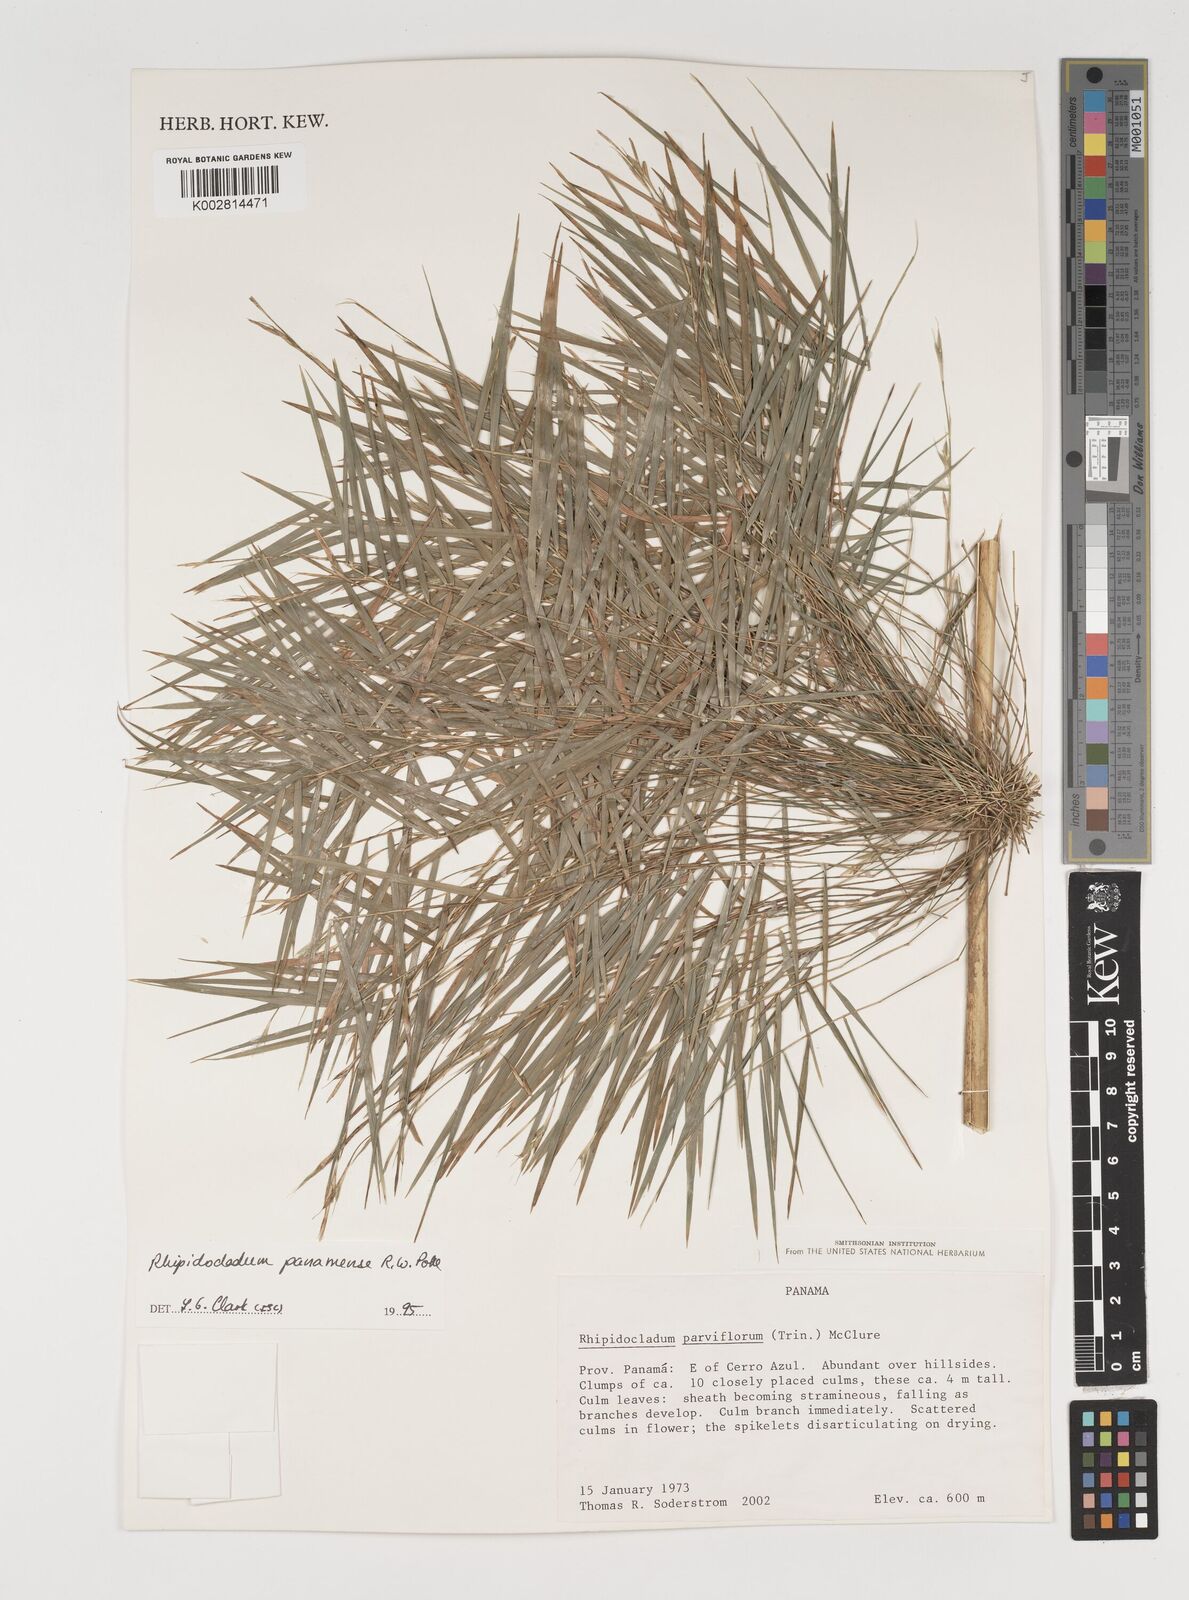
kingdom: Plantae
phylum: Tracheophyta
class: Liliopsida
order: Poales
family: Poaceae
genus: Rhipidocladum
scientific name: Rhipidocladum panamense
